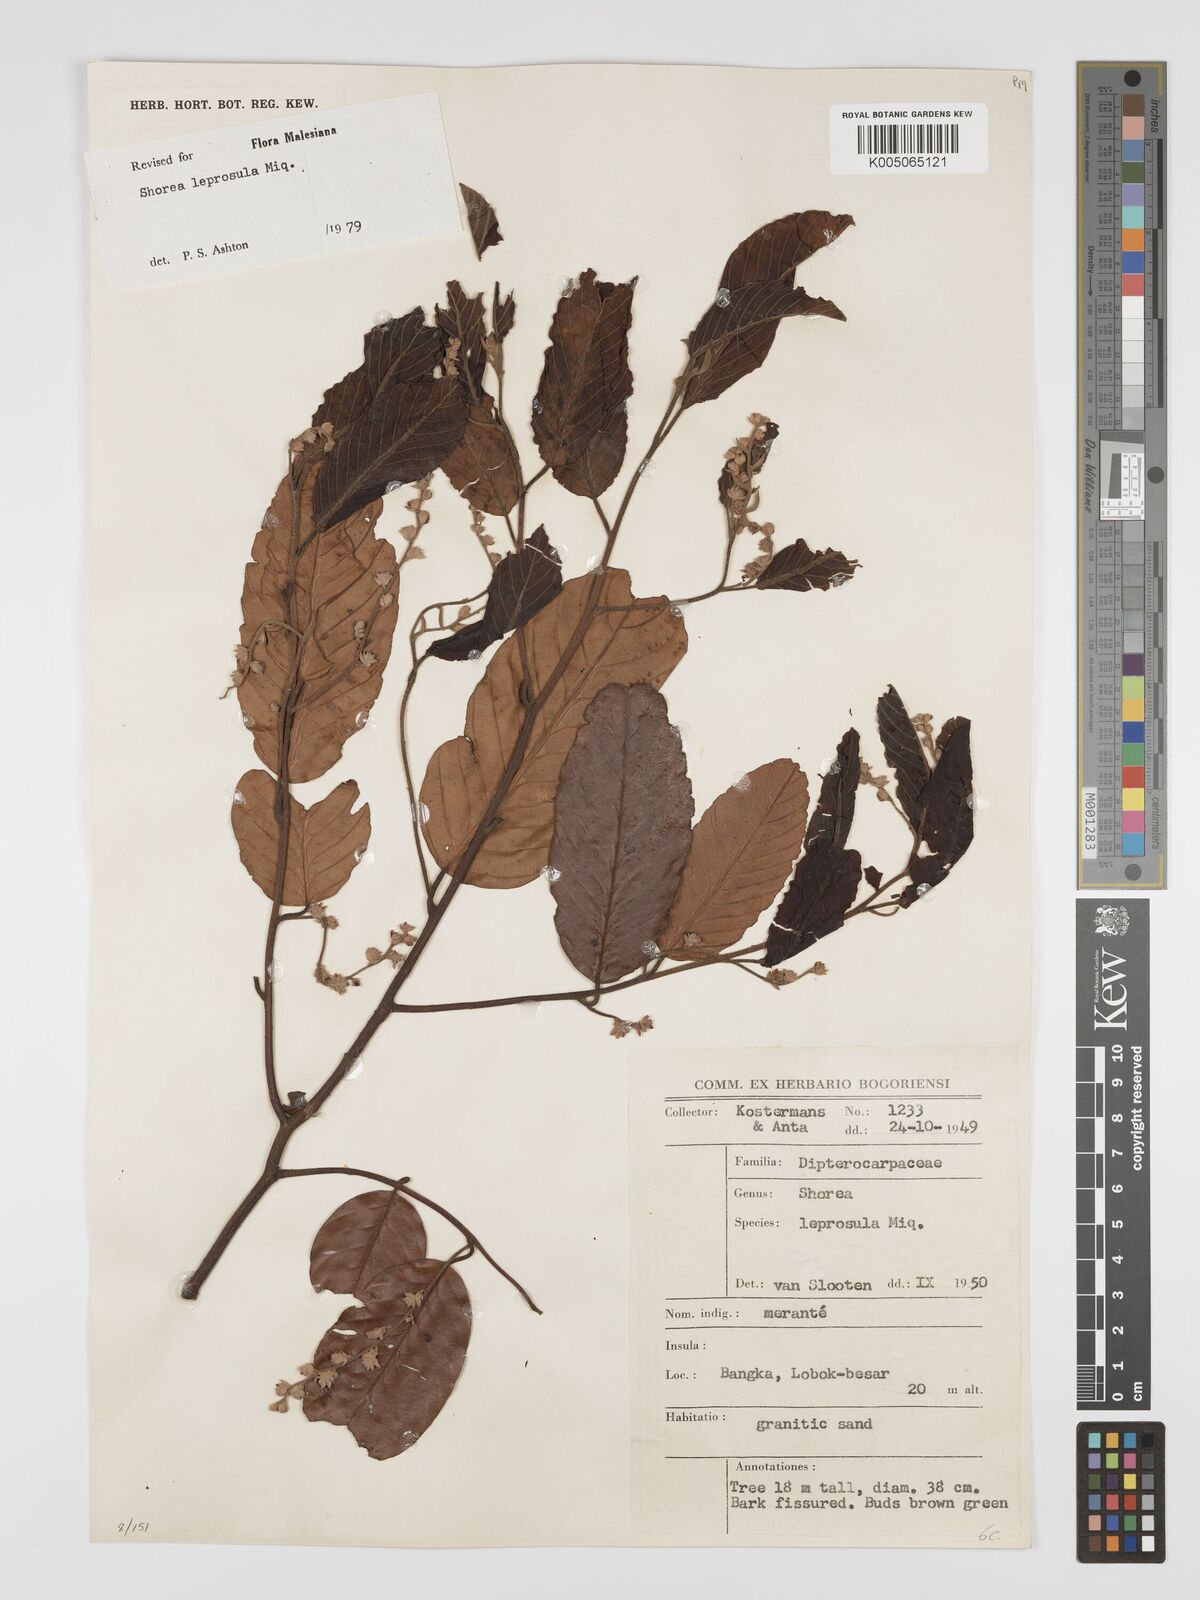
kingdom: Plantae
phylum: Tracheophyta
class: Magnoliopsida
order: Malvales
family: Dipterocarpaceae
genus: Shorea
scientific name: Shorea leprosula
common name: Light red meranti
